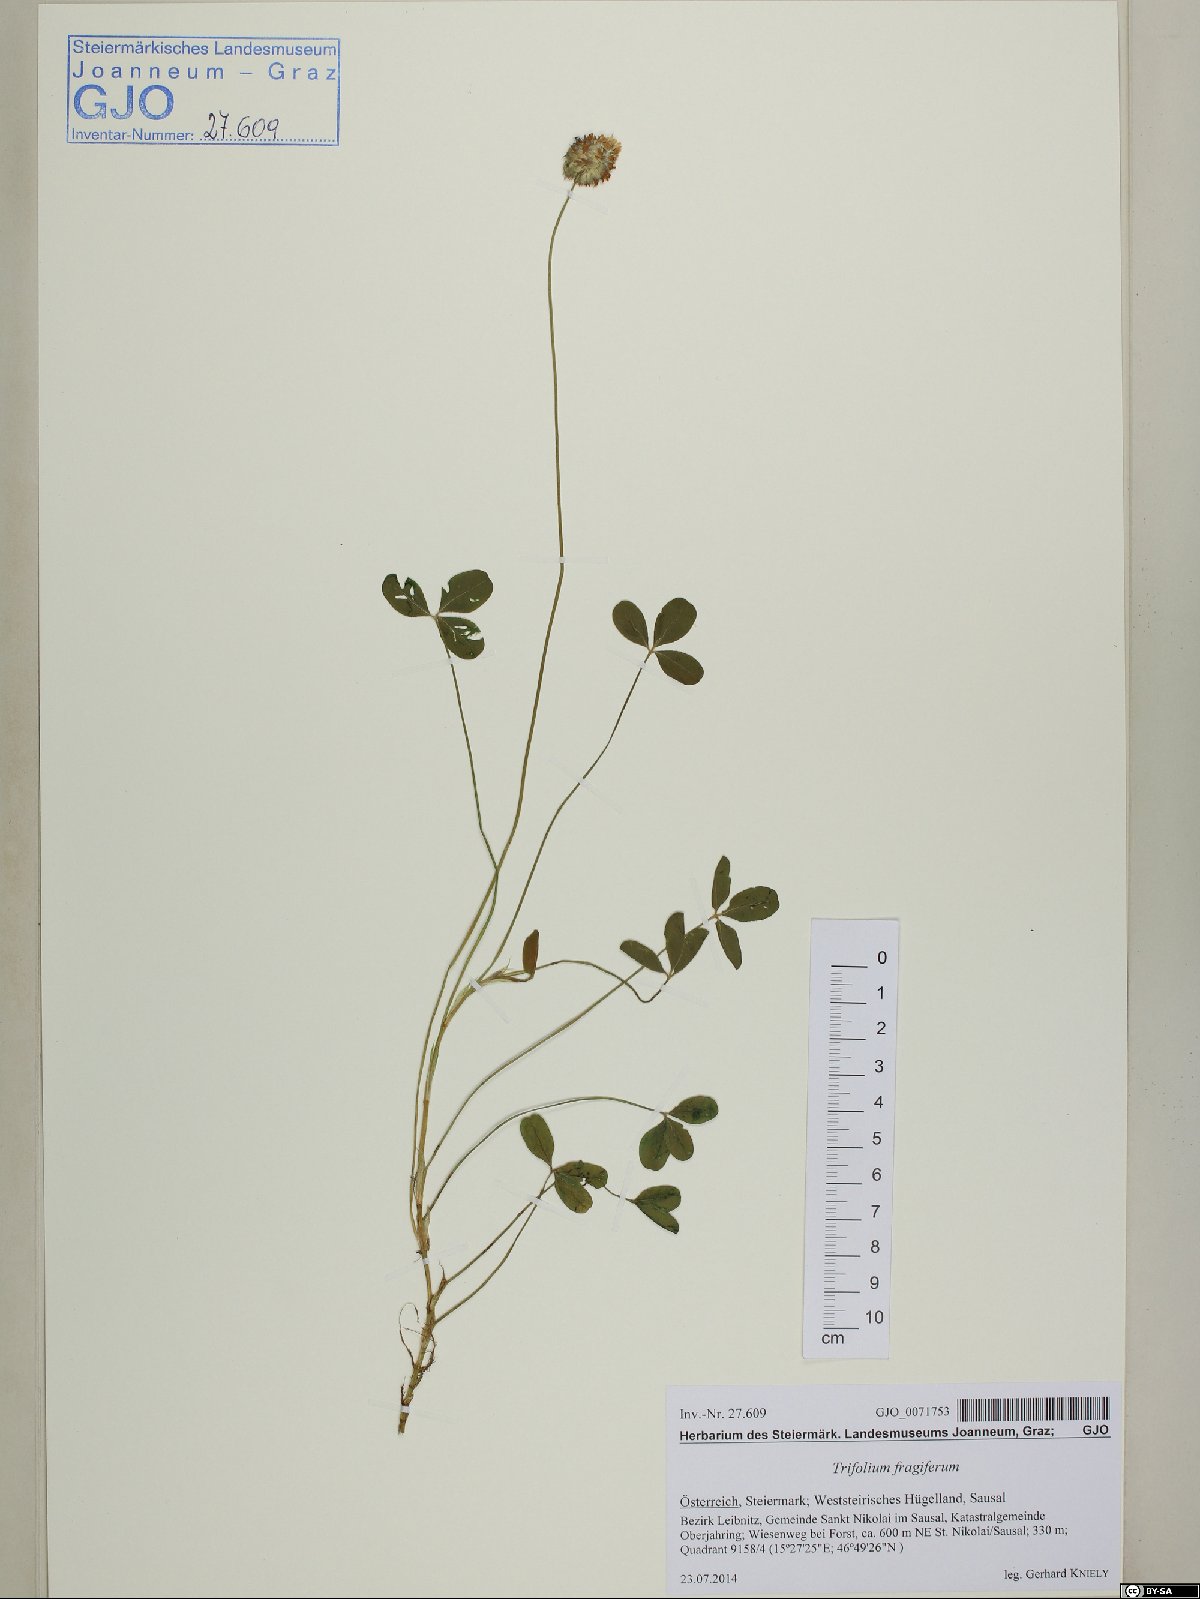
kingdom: Plantae
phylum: Tracheophyta
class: Magnoliopsida
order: Fabales
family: Fabaceae
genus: Trifolium
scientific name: Trifolium fragiferum
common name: Strawberry clover
